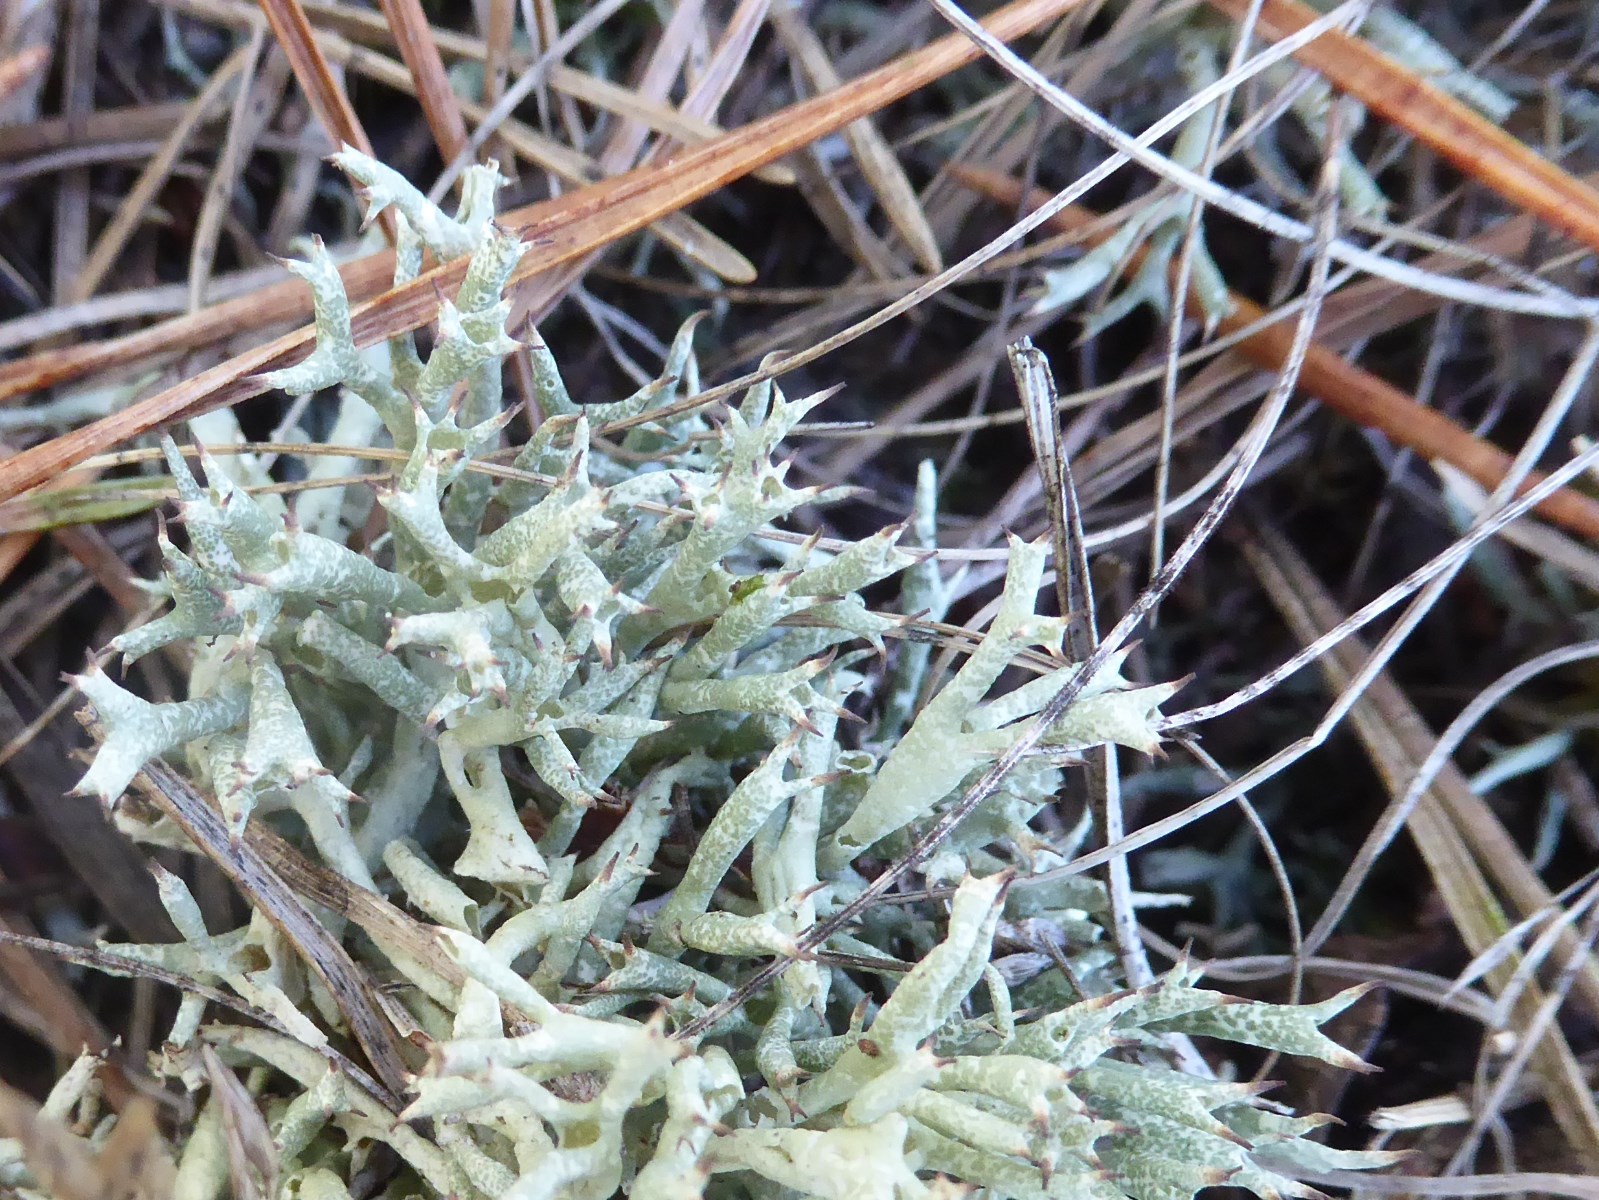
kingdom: Fungi
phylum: Ascomycota
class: Lecanoromycetes
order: Lecanorales
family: Cladoniaceae
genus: Cladonia
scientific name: Cladonia uncialis
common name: pigget bægerlav
